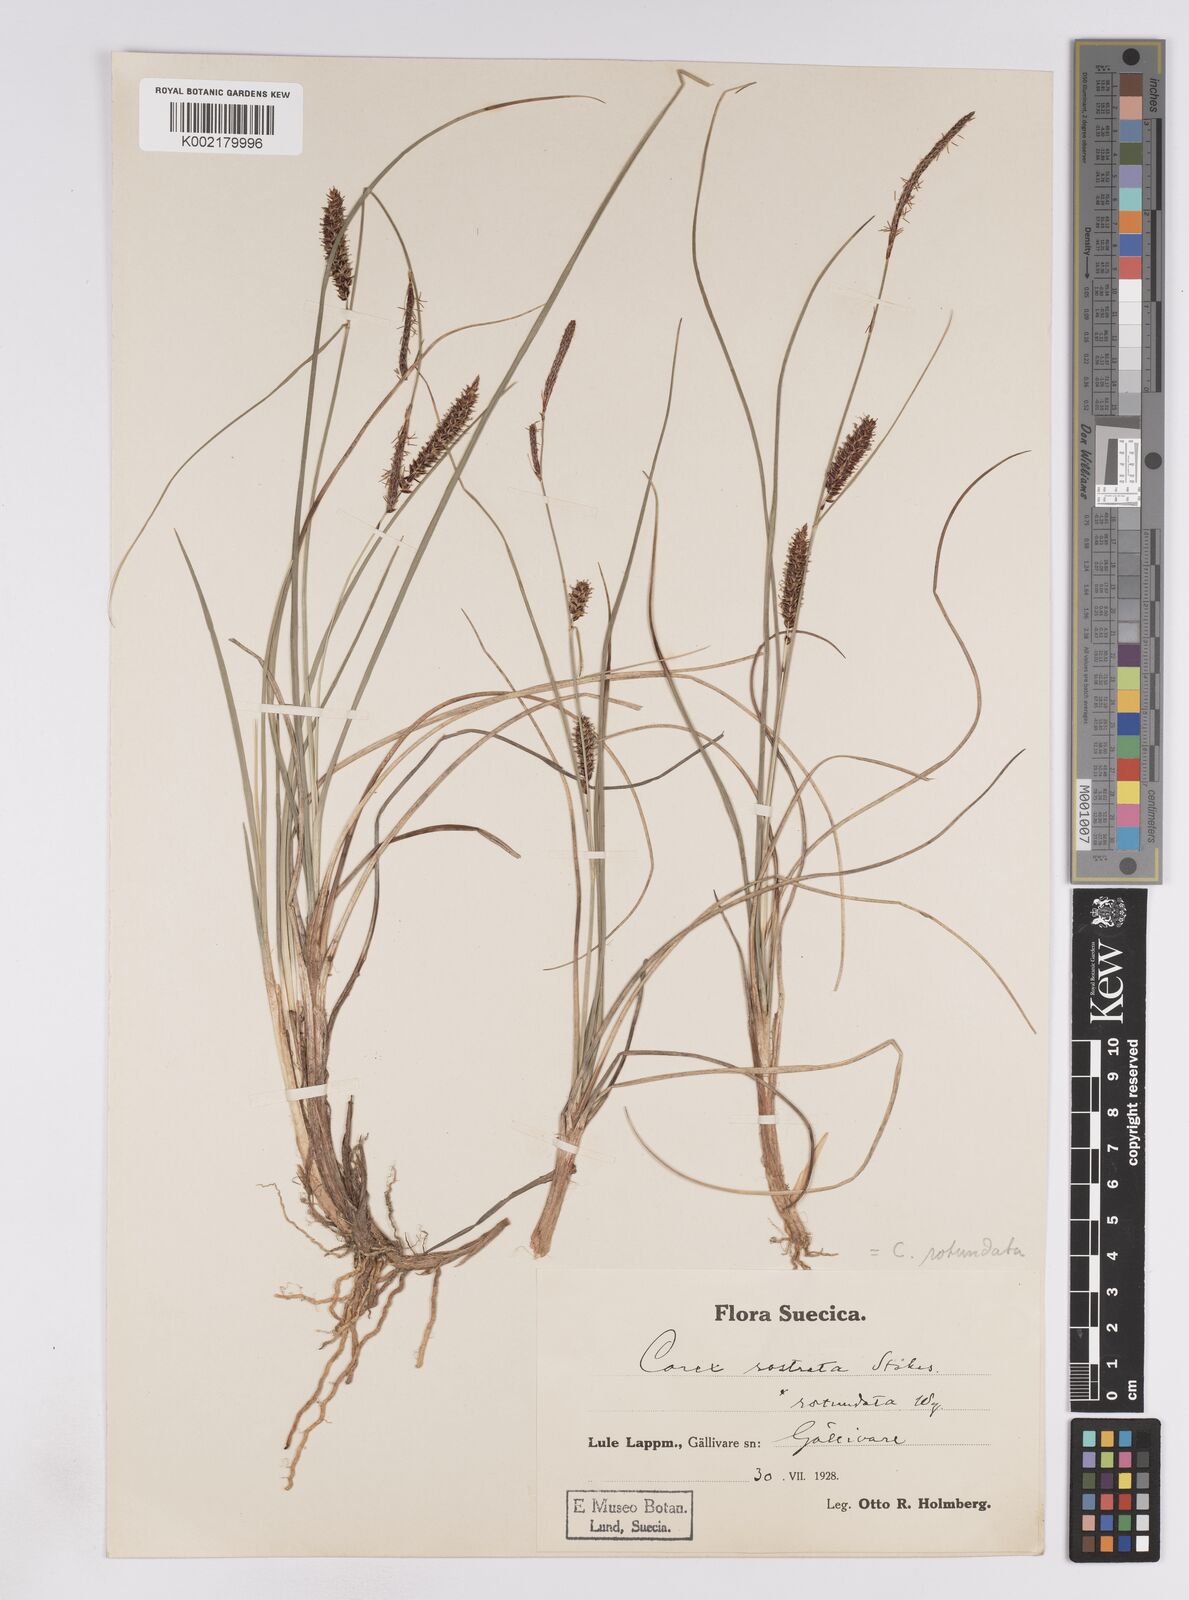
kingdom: Plantae
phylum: Tracheophyta
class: Liliopsida
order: Poales
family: Cyperaceae
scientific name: Cyperaceae
